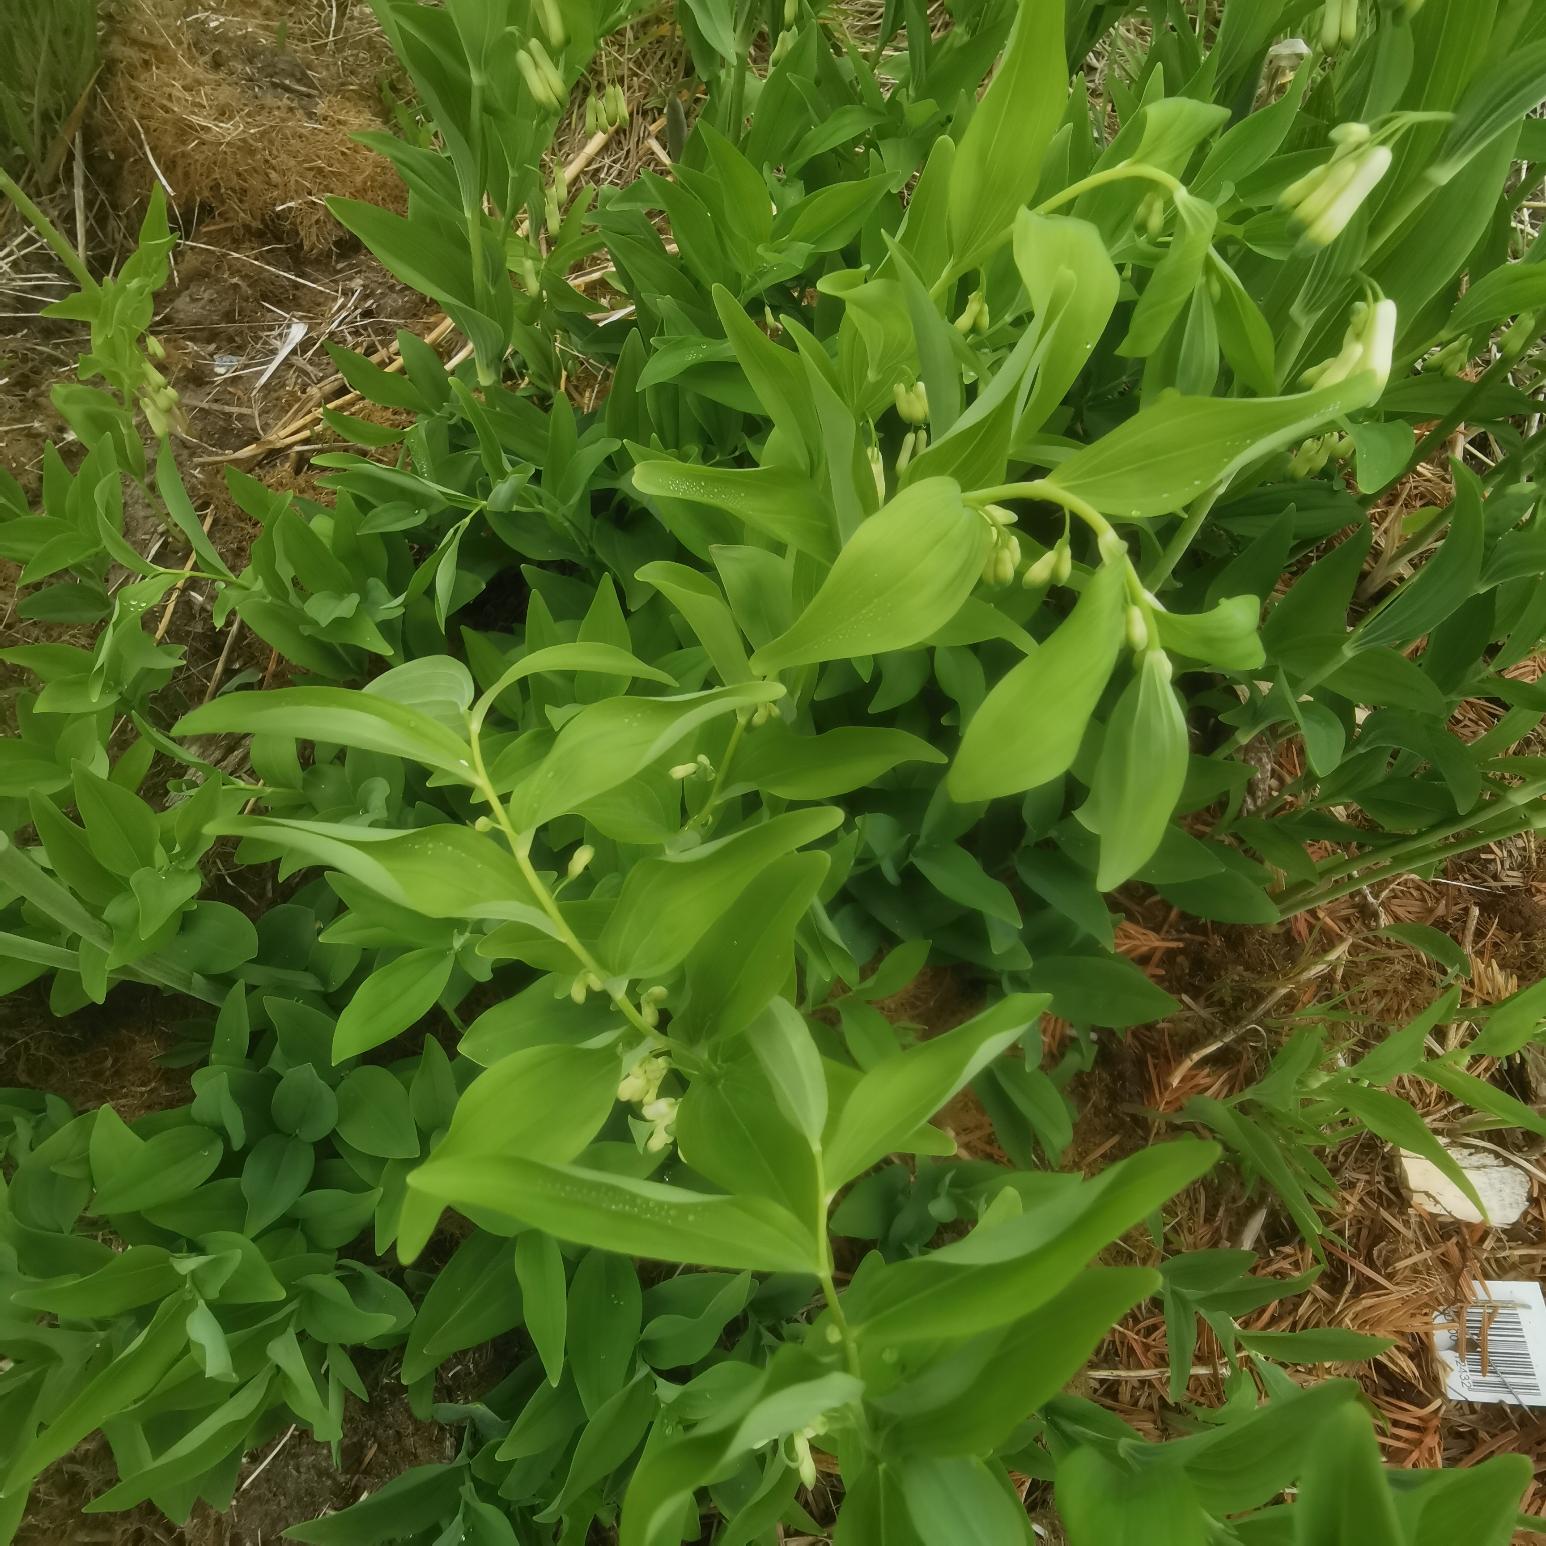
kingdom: Plantae
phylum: Tracheophyta
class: Liliopsida
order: Asparagales
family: Asparagaceae
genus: Polygonatum
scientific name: Polygonatum
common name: Hybrid-konval
